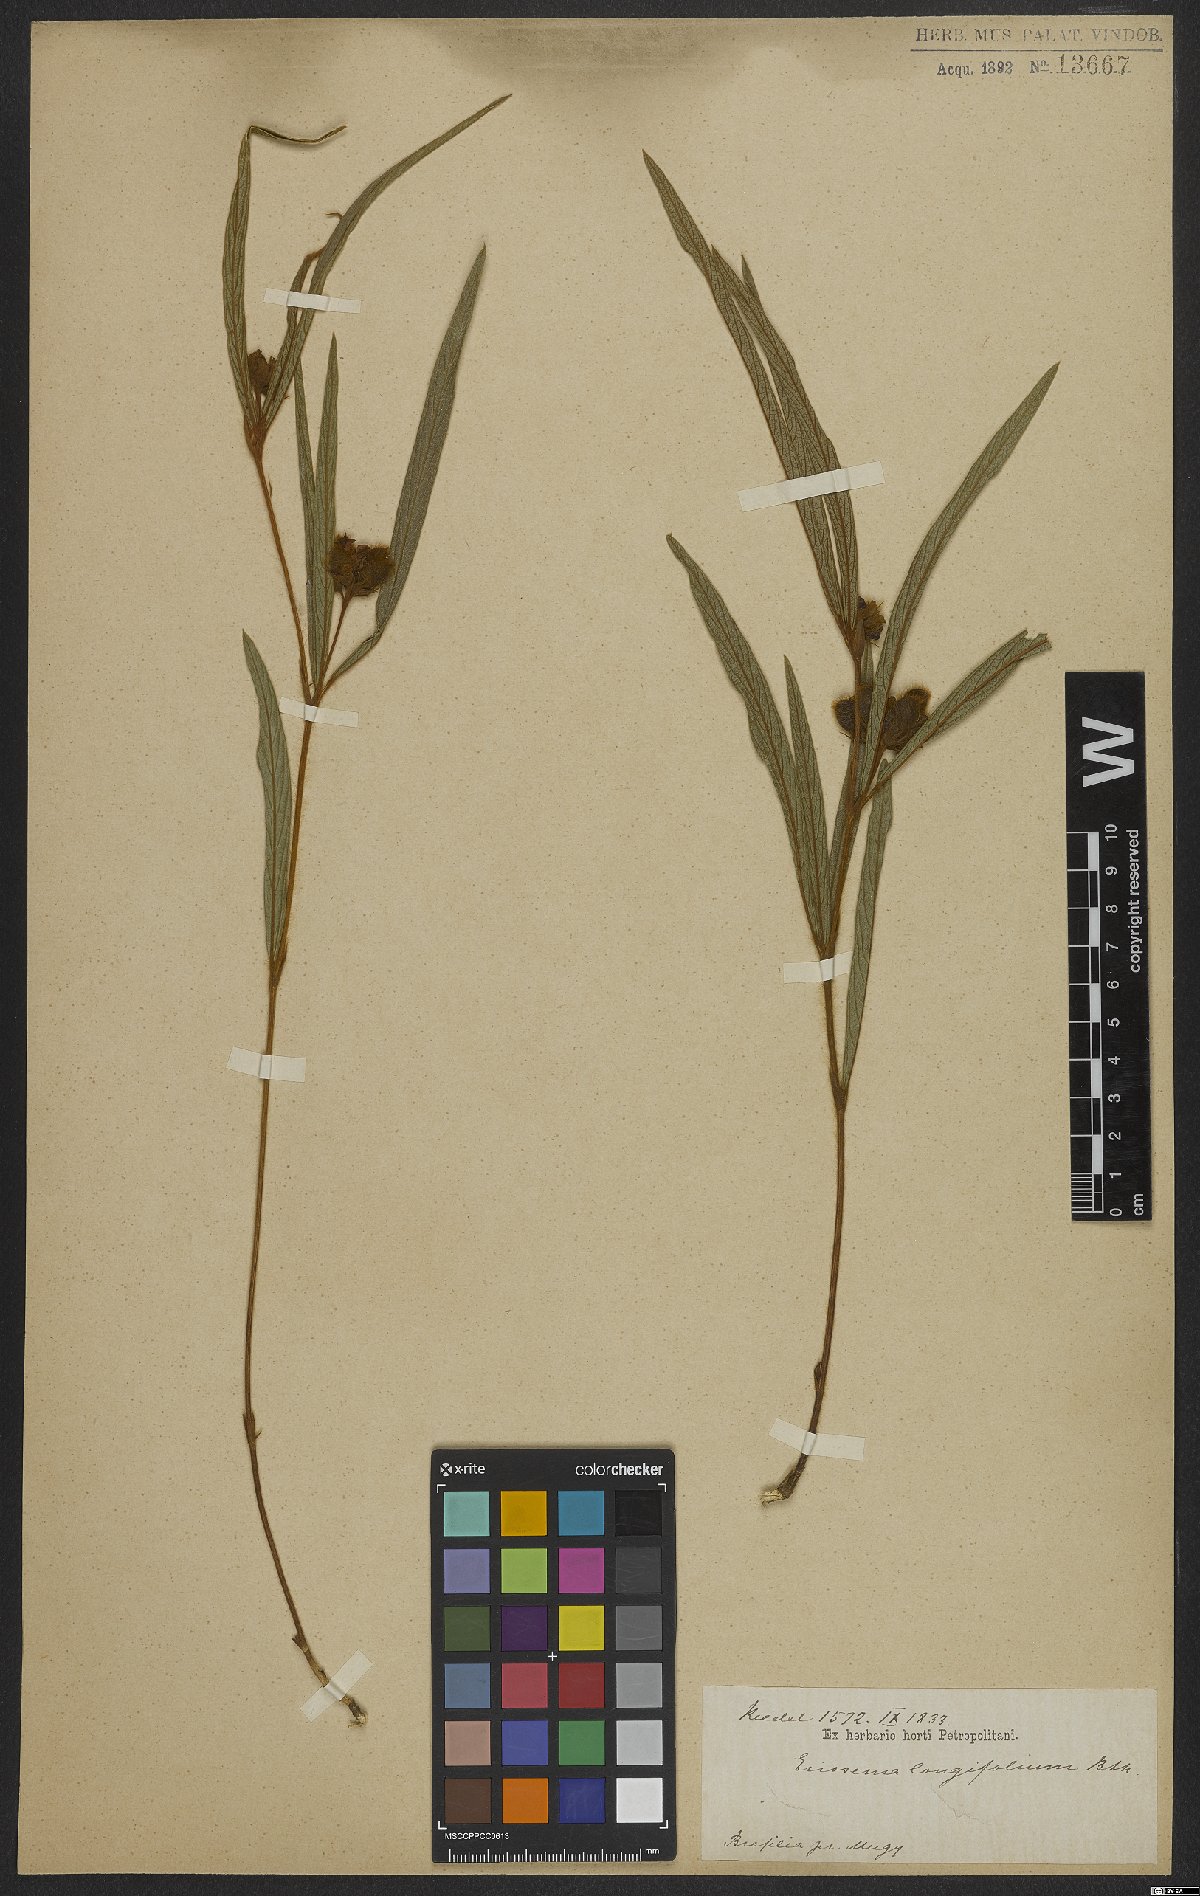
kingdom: Plantae
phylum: Tracheophyta
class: Magnoliopsida
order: Fabales
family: Fabaceae
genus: Eriosema
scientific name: Eriosema longifolium
